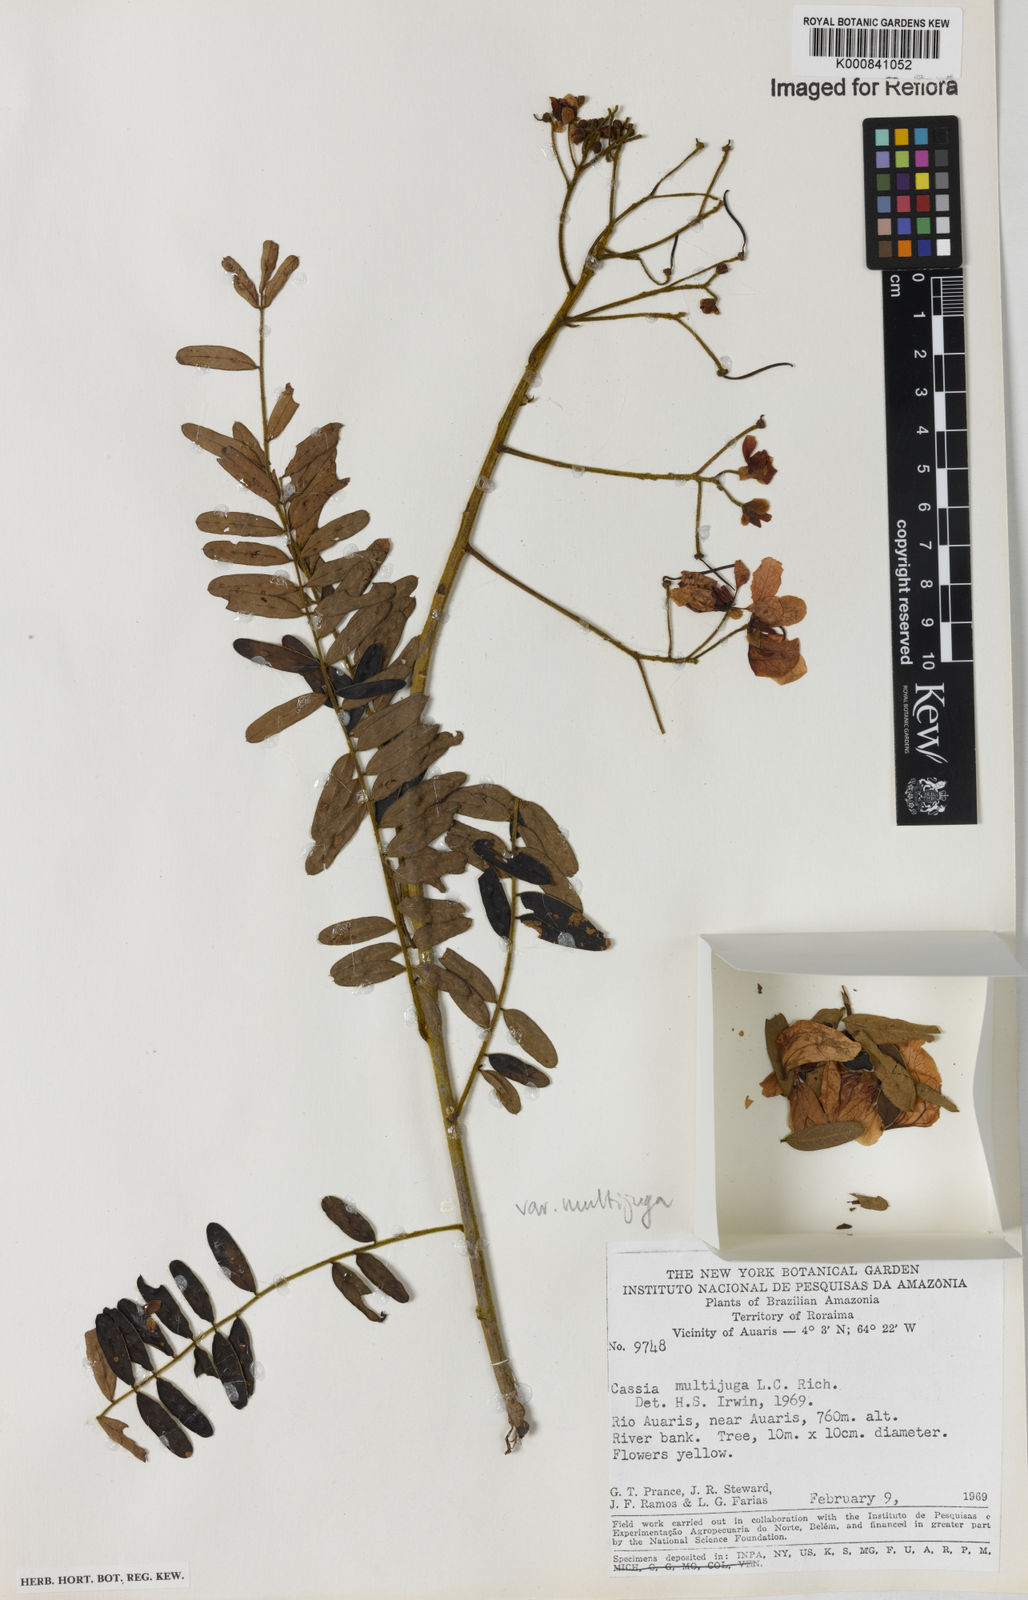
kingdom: Plantae
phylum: Tracheophyta
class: Magnoliopsida
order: Fabales
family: Fabaceae
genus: Senna
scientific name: Senna multijuga
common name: False sicklepod
